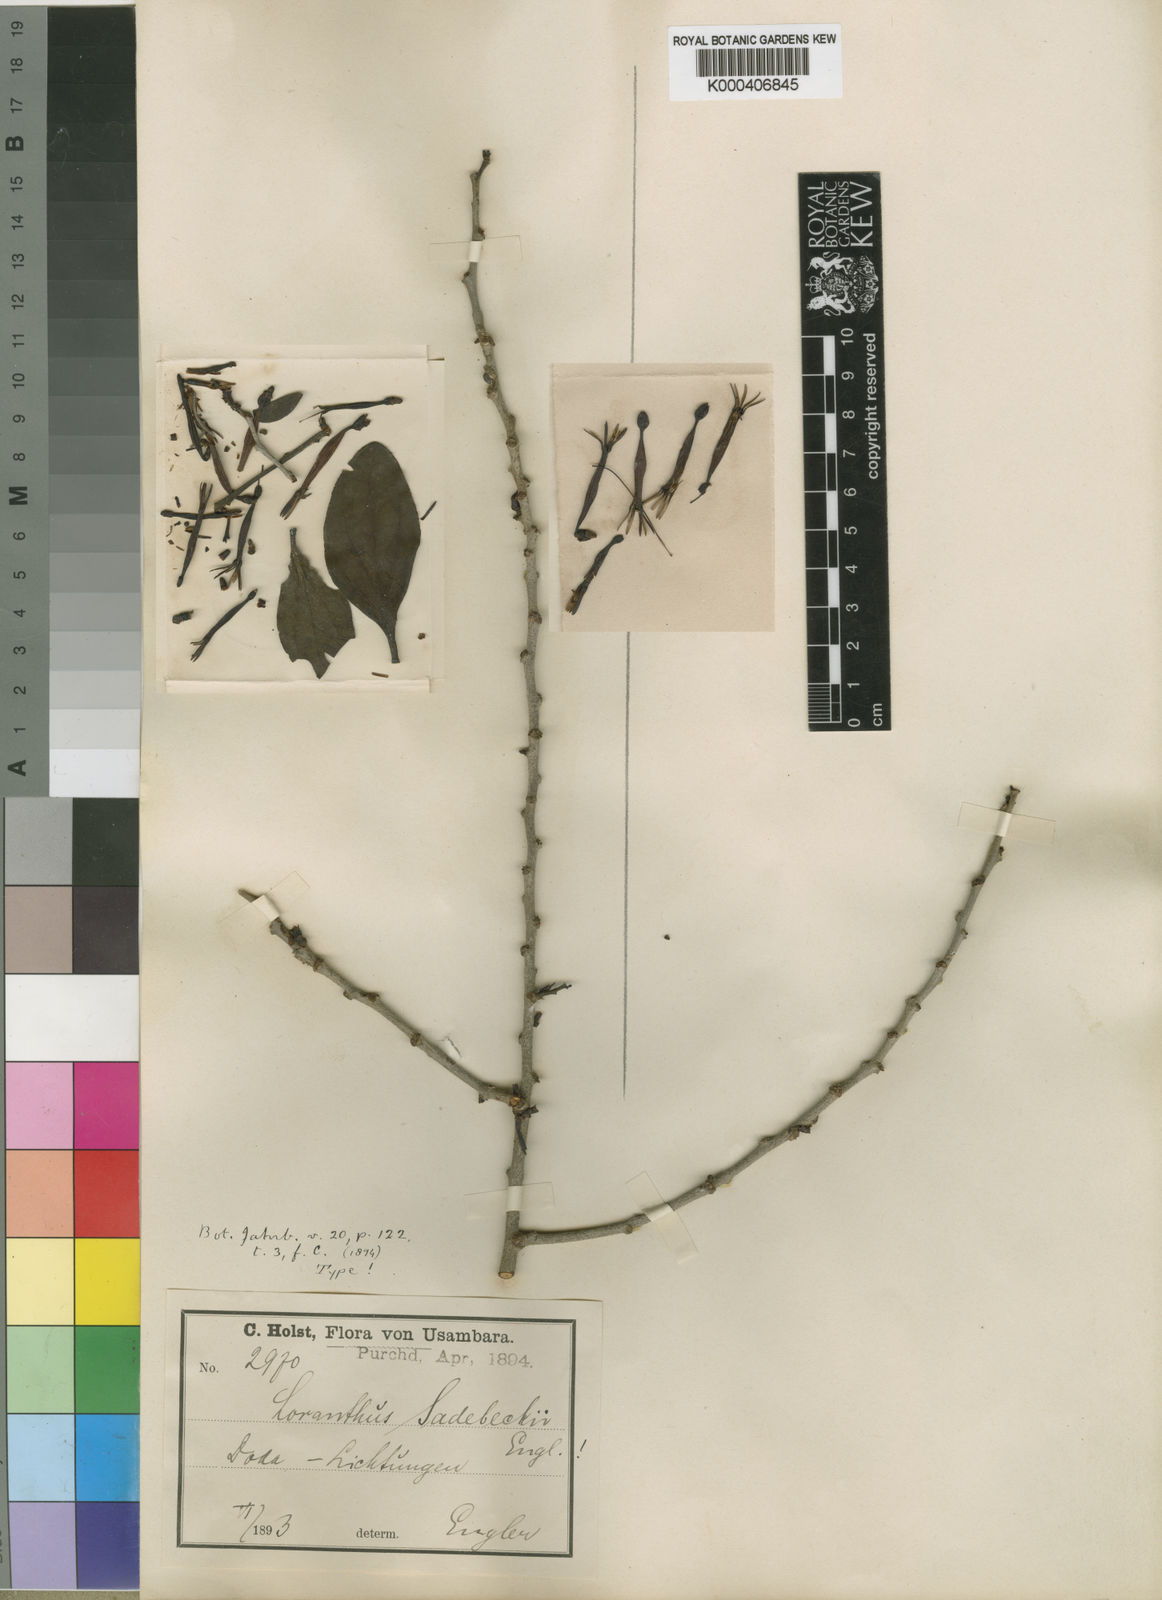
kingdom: Plantae
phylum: Tracheophyta
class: Magnoliopsida
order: Santalales
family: Loranthaceae
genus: Agelanthus
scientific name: Agelanthus sansibarensis
